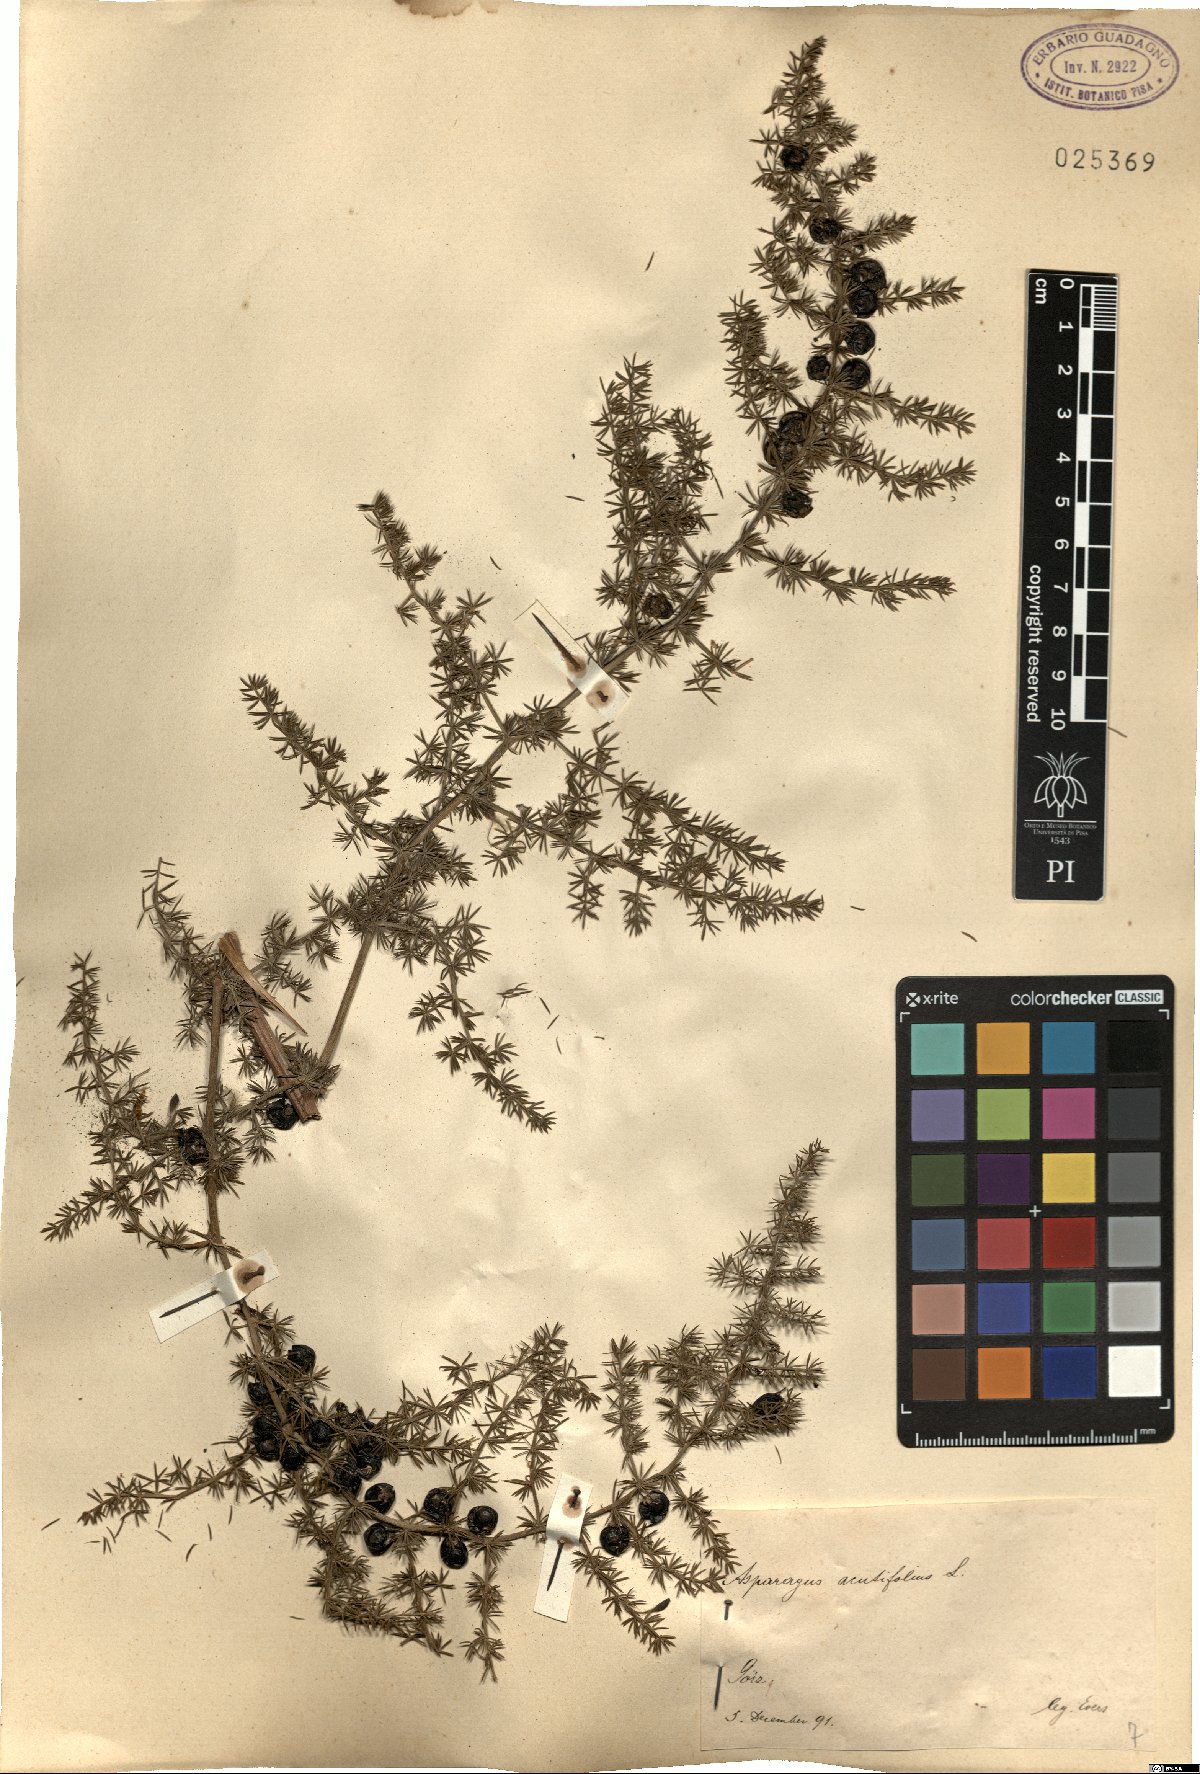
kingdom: Plantae
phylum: Tracheophyta
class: Liliopsida
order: Asparagales
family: Asparagaceae
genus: Asparagus
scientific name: Asparagus acutifolius
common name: Wild asparagus
